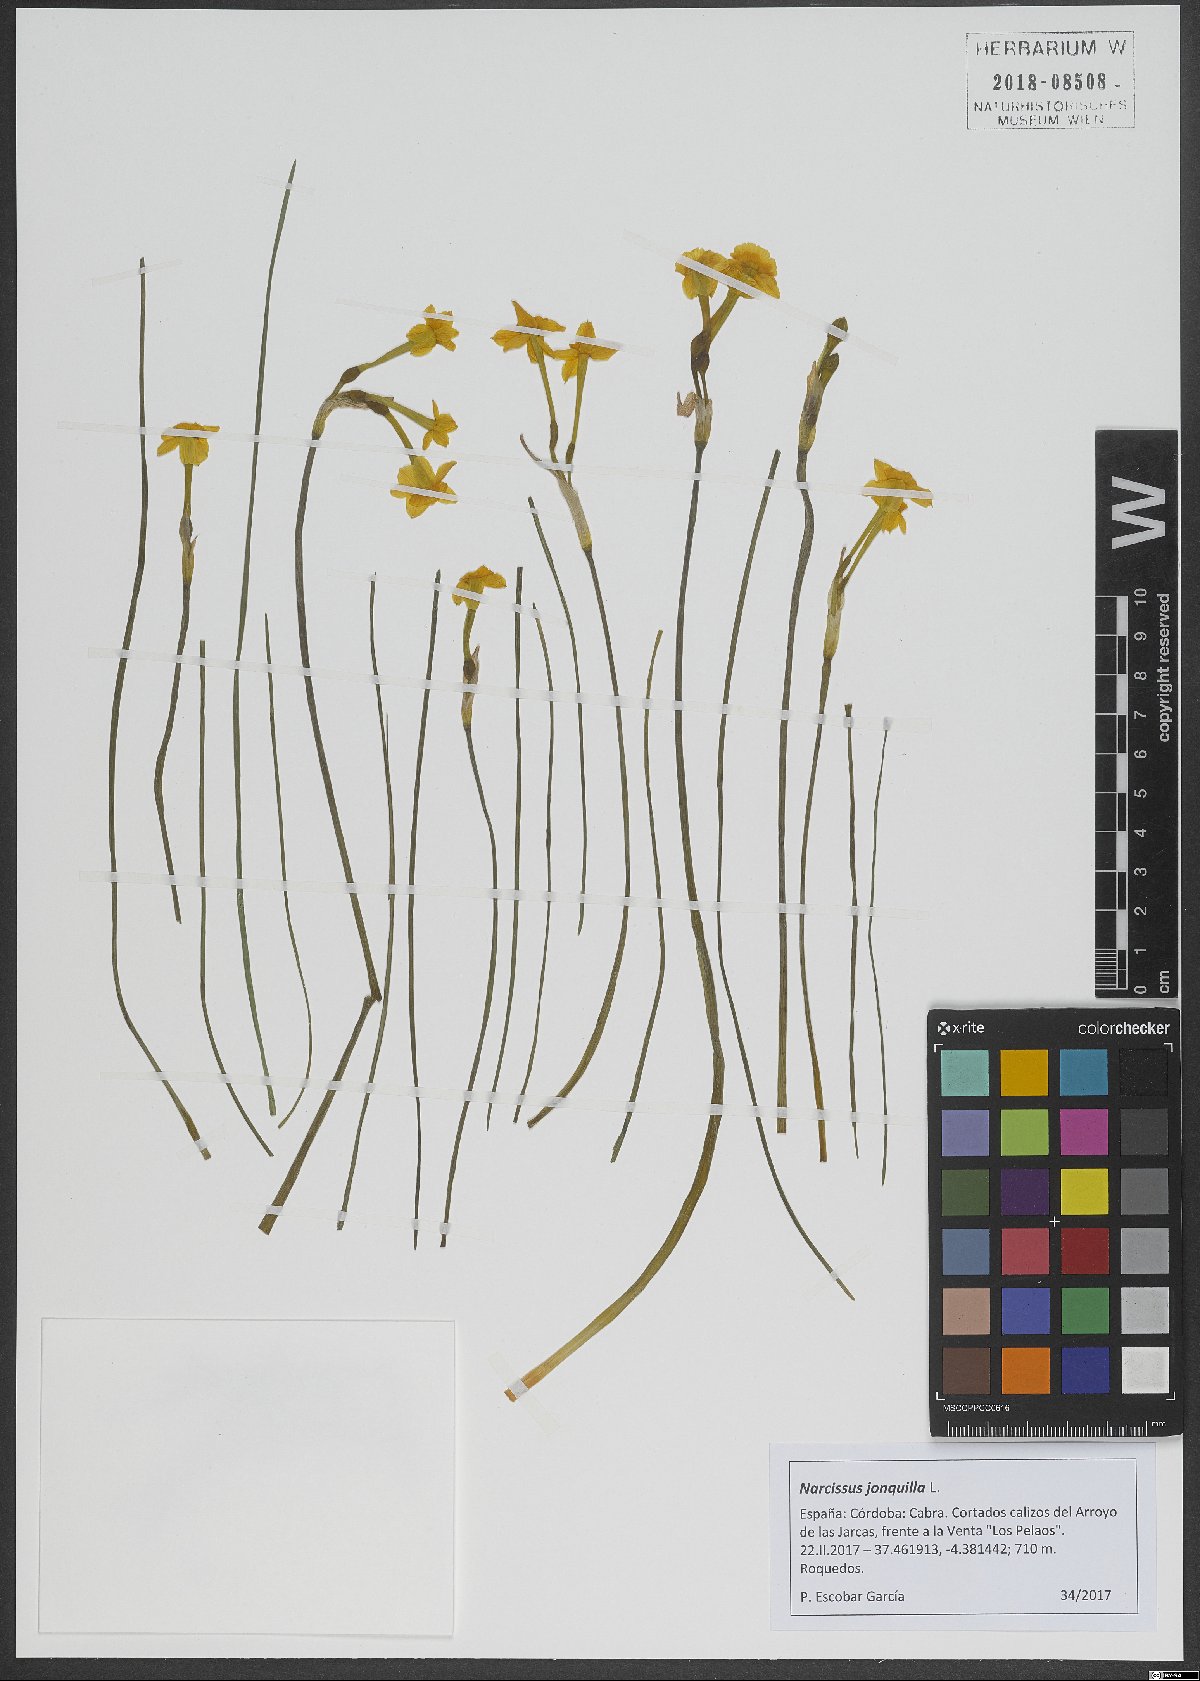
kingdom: Plantae
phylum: Tracheophyta
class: Liliopsida
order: Asparagales
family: Amaryllidaceae
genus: Narcissus
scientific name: Narcissus jonquilla
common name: Jonquil
